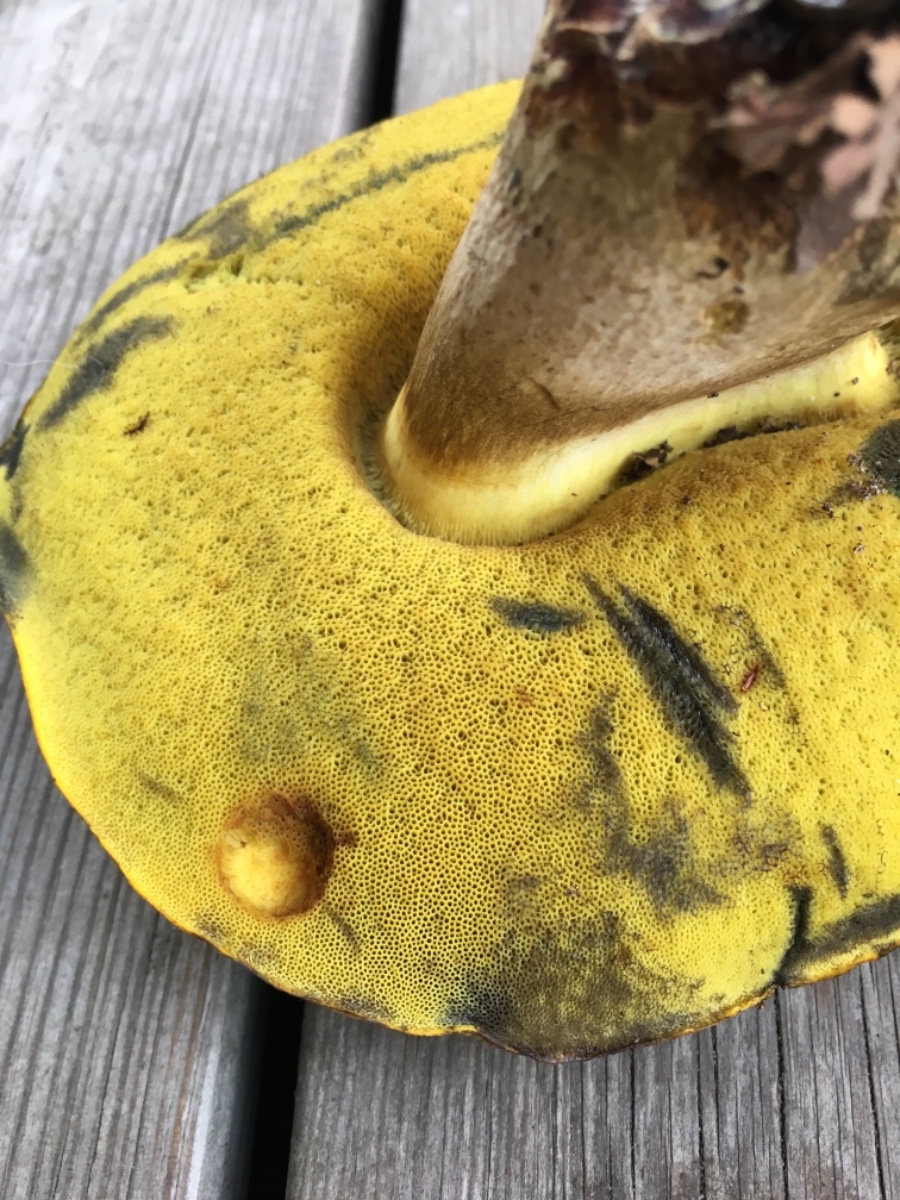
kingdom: Fungi
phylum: Basidiomycota
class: Agaricomycetes
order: Boletales
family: Boletaceae
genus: Neoboletus
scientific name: Neoboletus praestigiator
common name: gul indigorørhat
